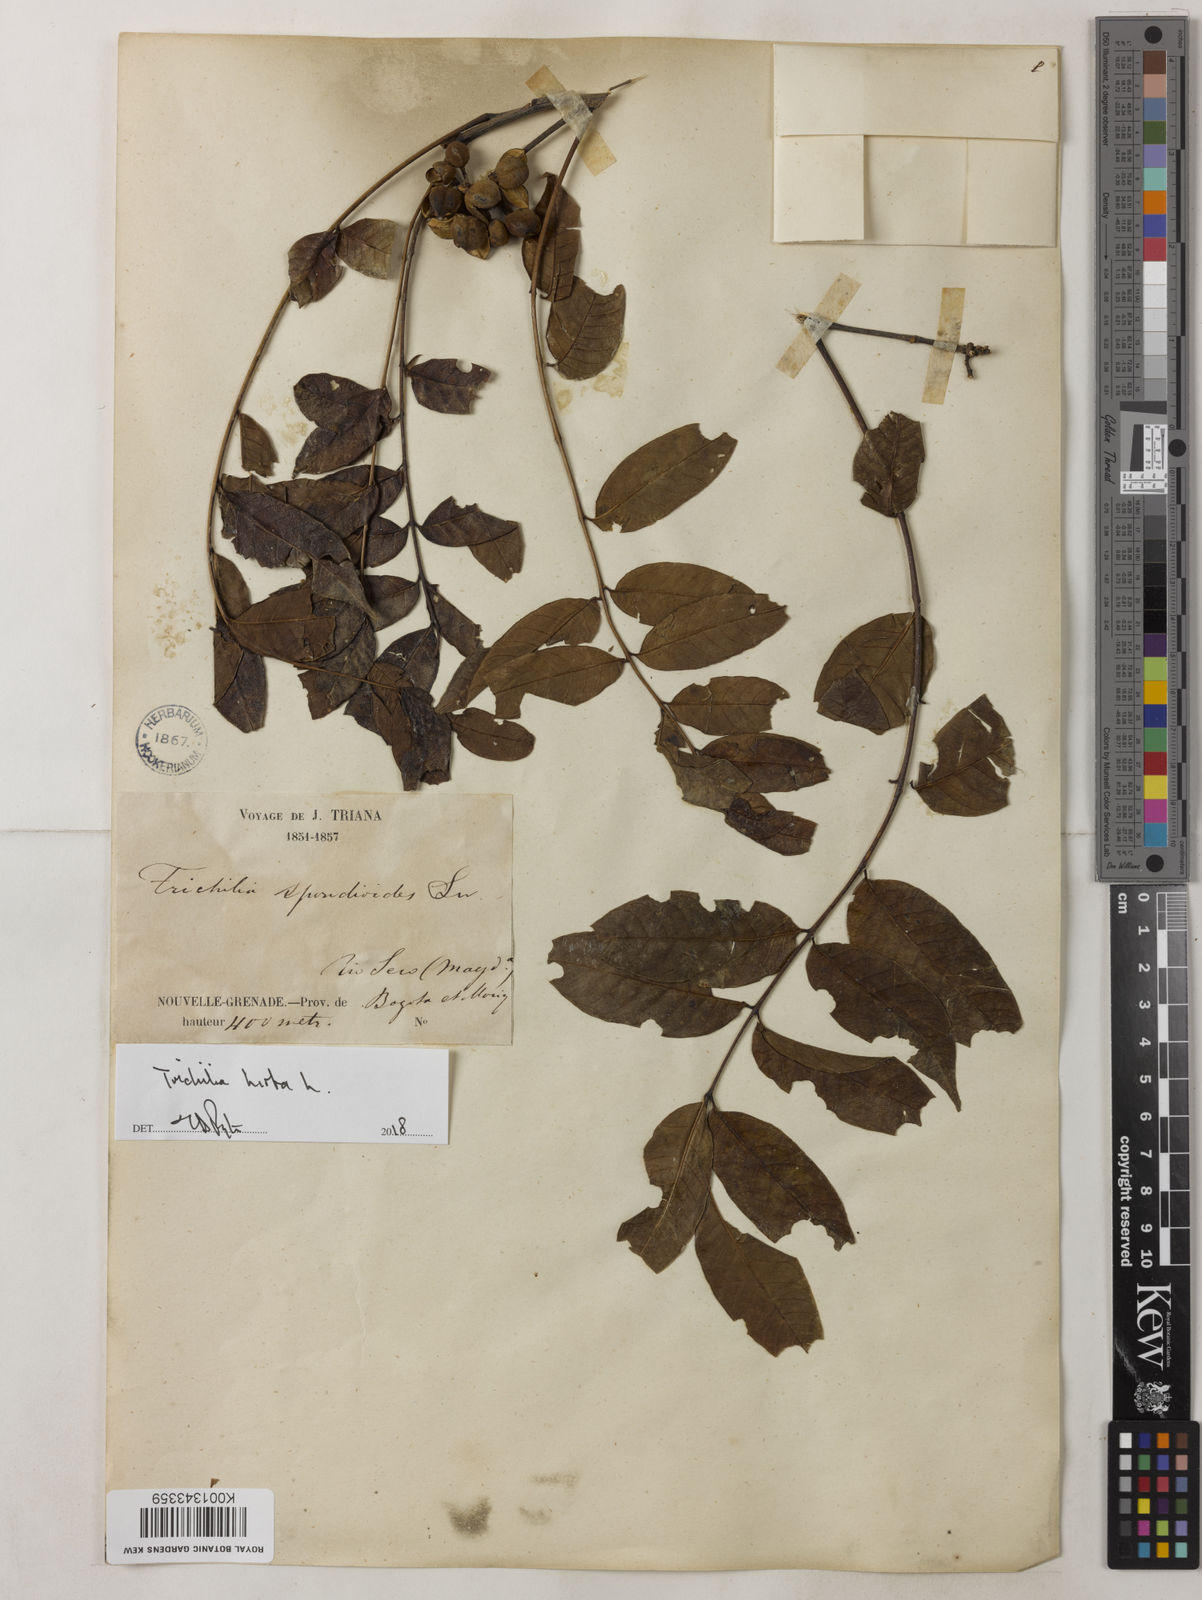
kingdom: Plantae
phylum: Tracheophyta
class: Magnoliopsida
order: Sapindales
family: Meliaceae
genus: Trichilia
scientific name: Trichilia hirta
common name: Red-cedar
